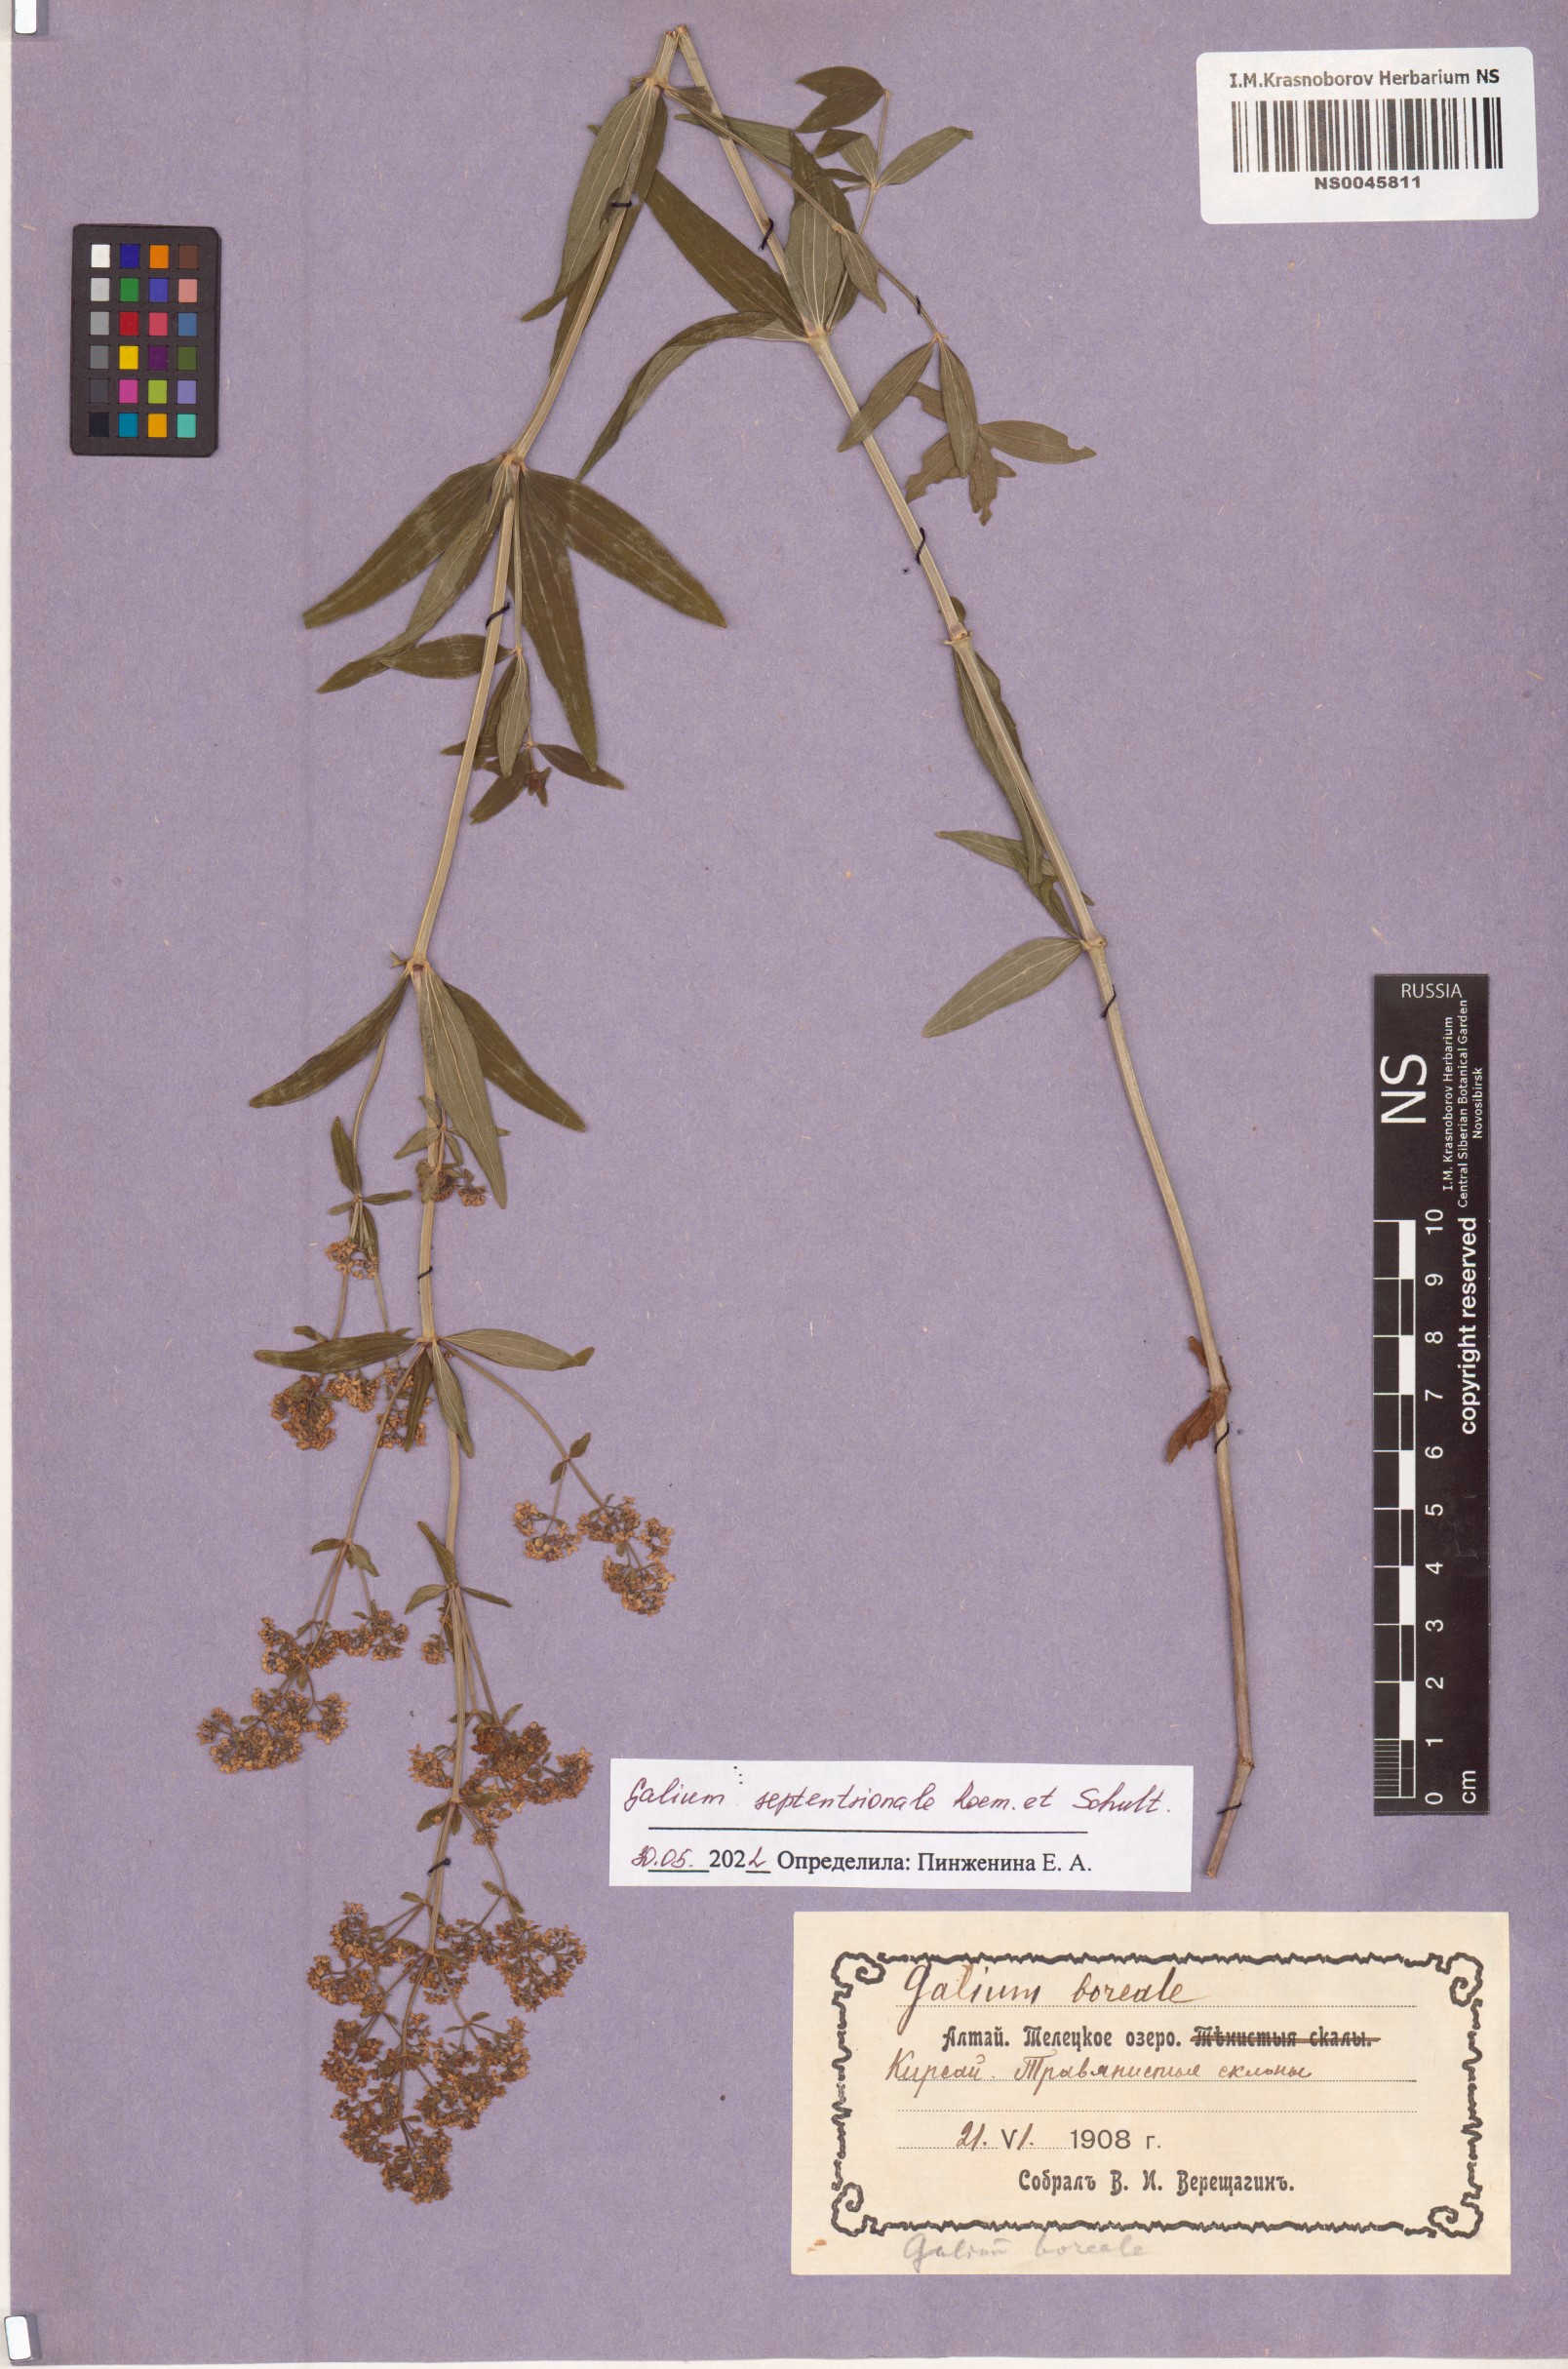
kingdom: Plantae
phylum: Tracheophyta
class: Magnoliopsida
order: Gentianales
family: Rubiaceae
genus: Galium
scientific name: Galium boreale
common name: Northern bedstraw
